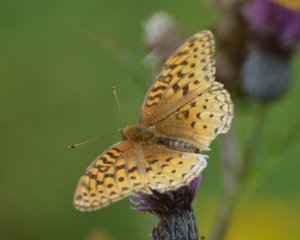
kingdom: Animalia
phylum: Arthropoda
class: Insecta
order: Lepidoptera
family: Nymphalidae
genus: Speyeria
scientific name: Speyeria cybele
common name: Great Spangled Fritillary
